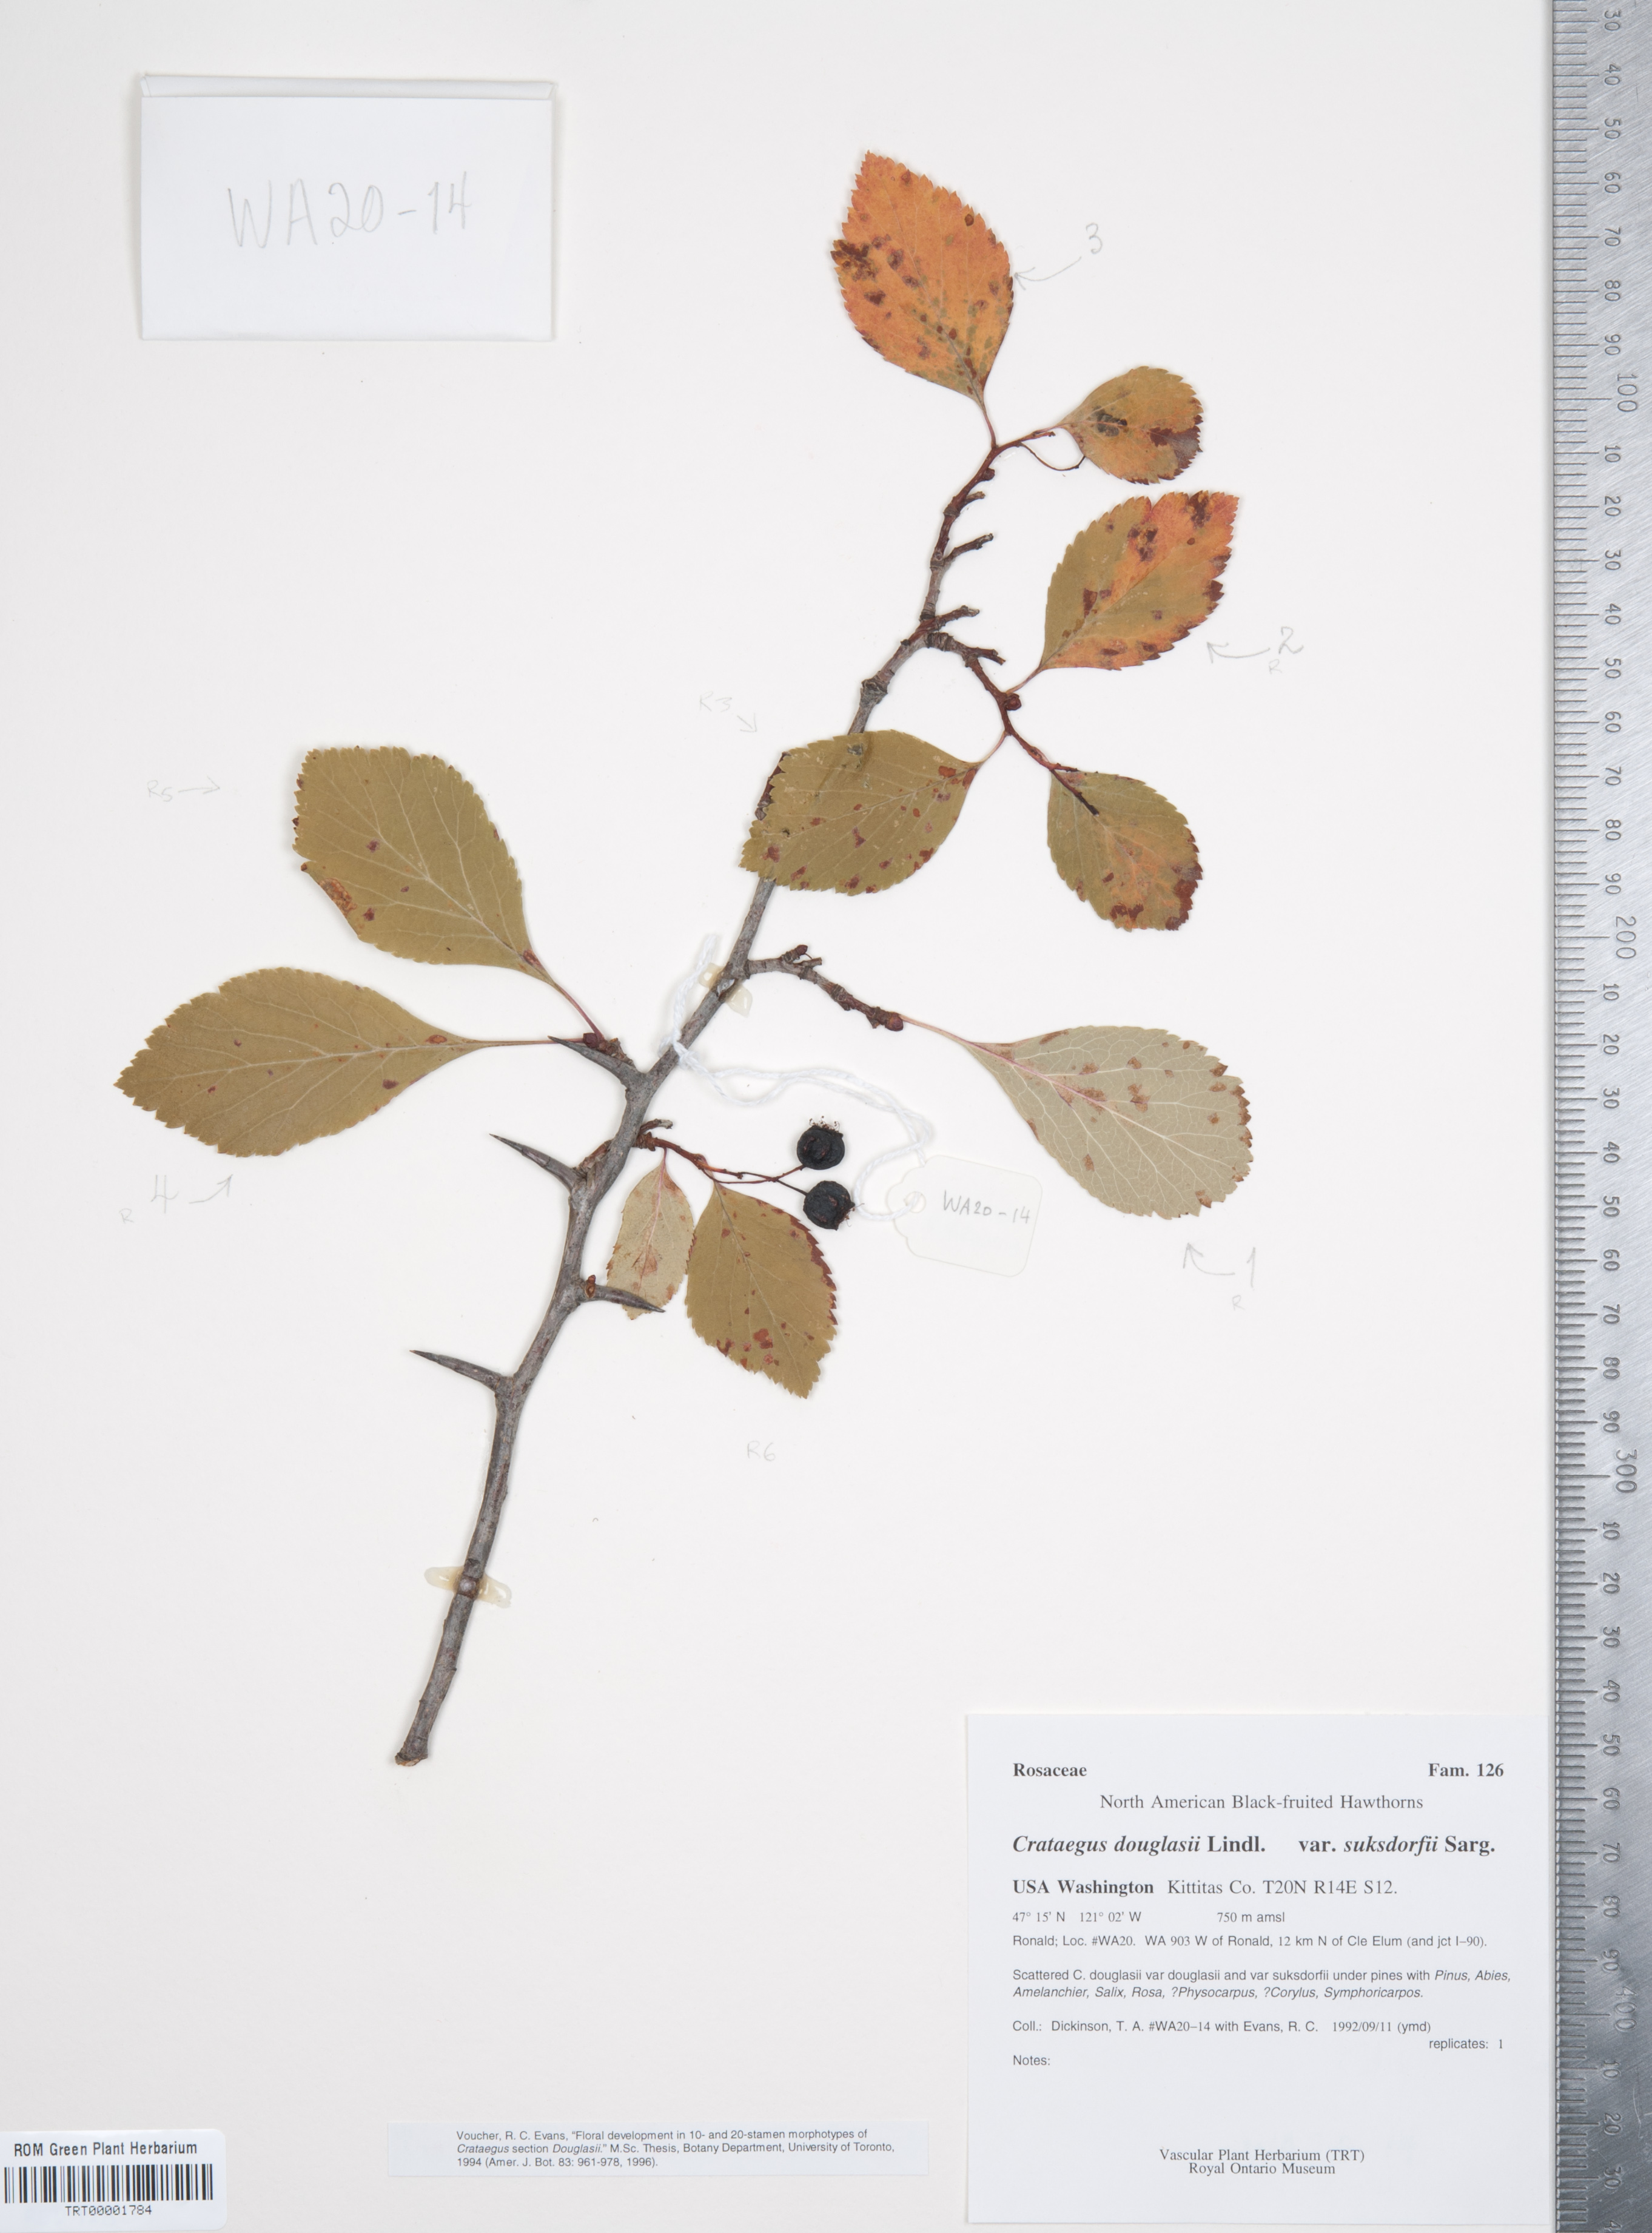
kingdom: Plantae
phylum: Tracheophyta
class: Magnoliopsida
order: Rosales
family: Rosaceae
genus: Crataegus
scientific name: Crataegus gaylussacia
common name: Huckleberry hawthorn
